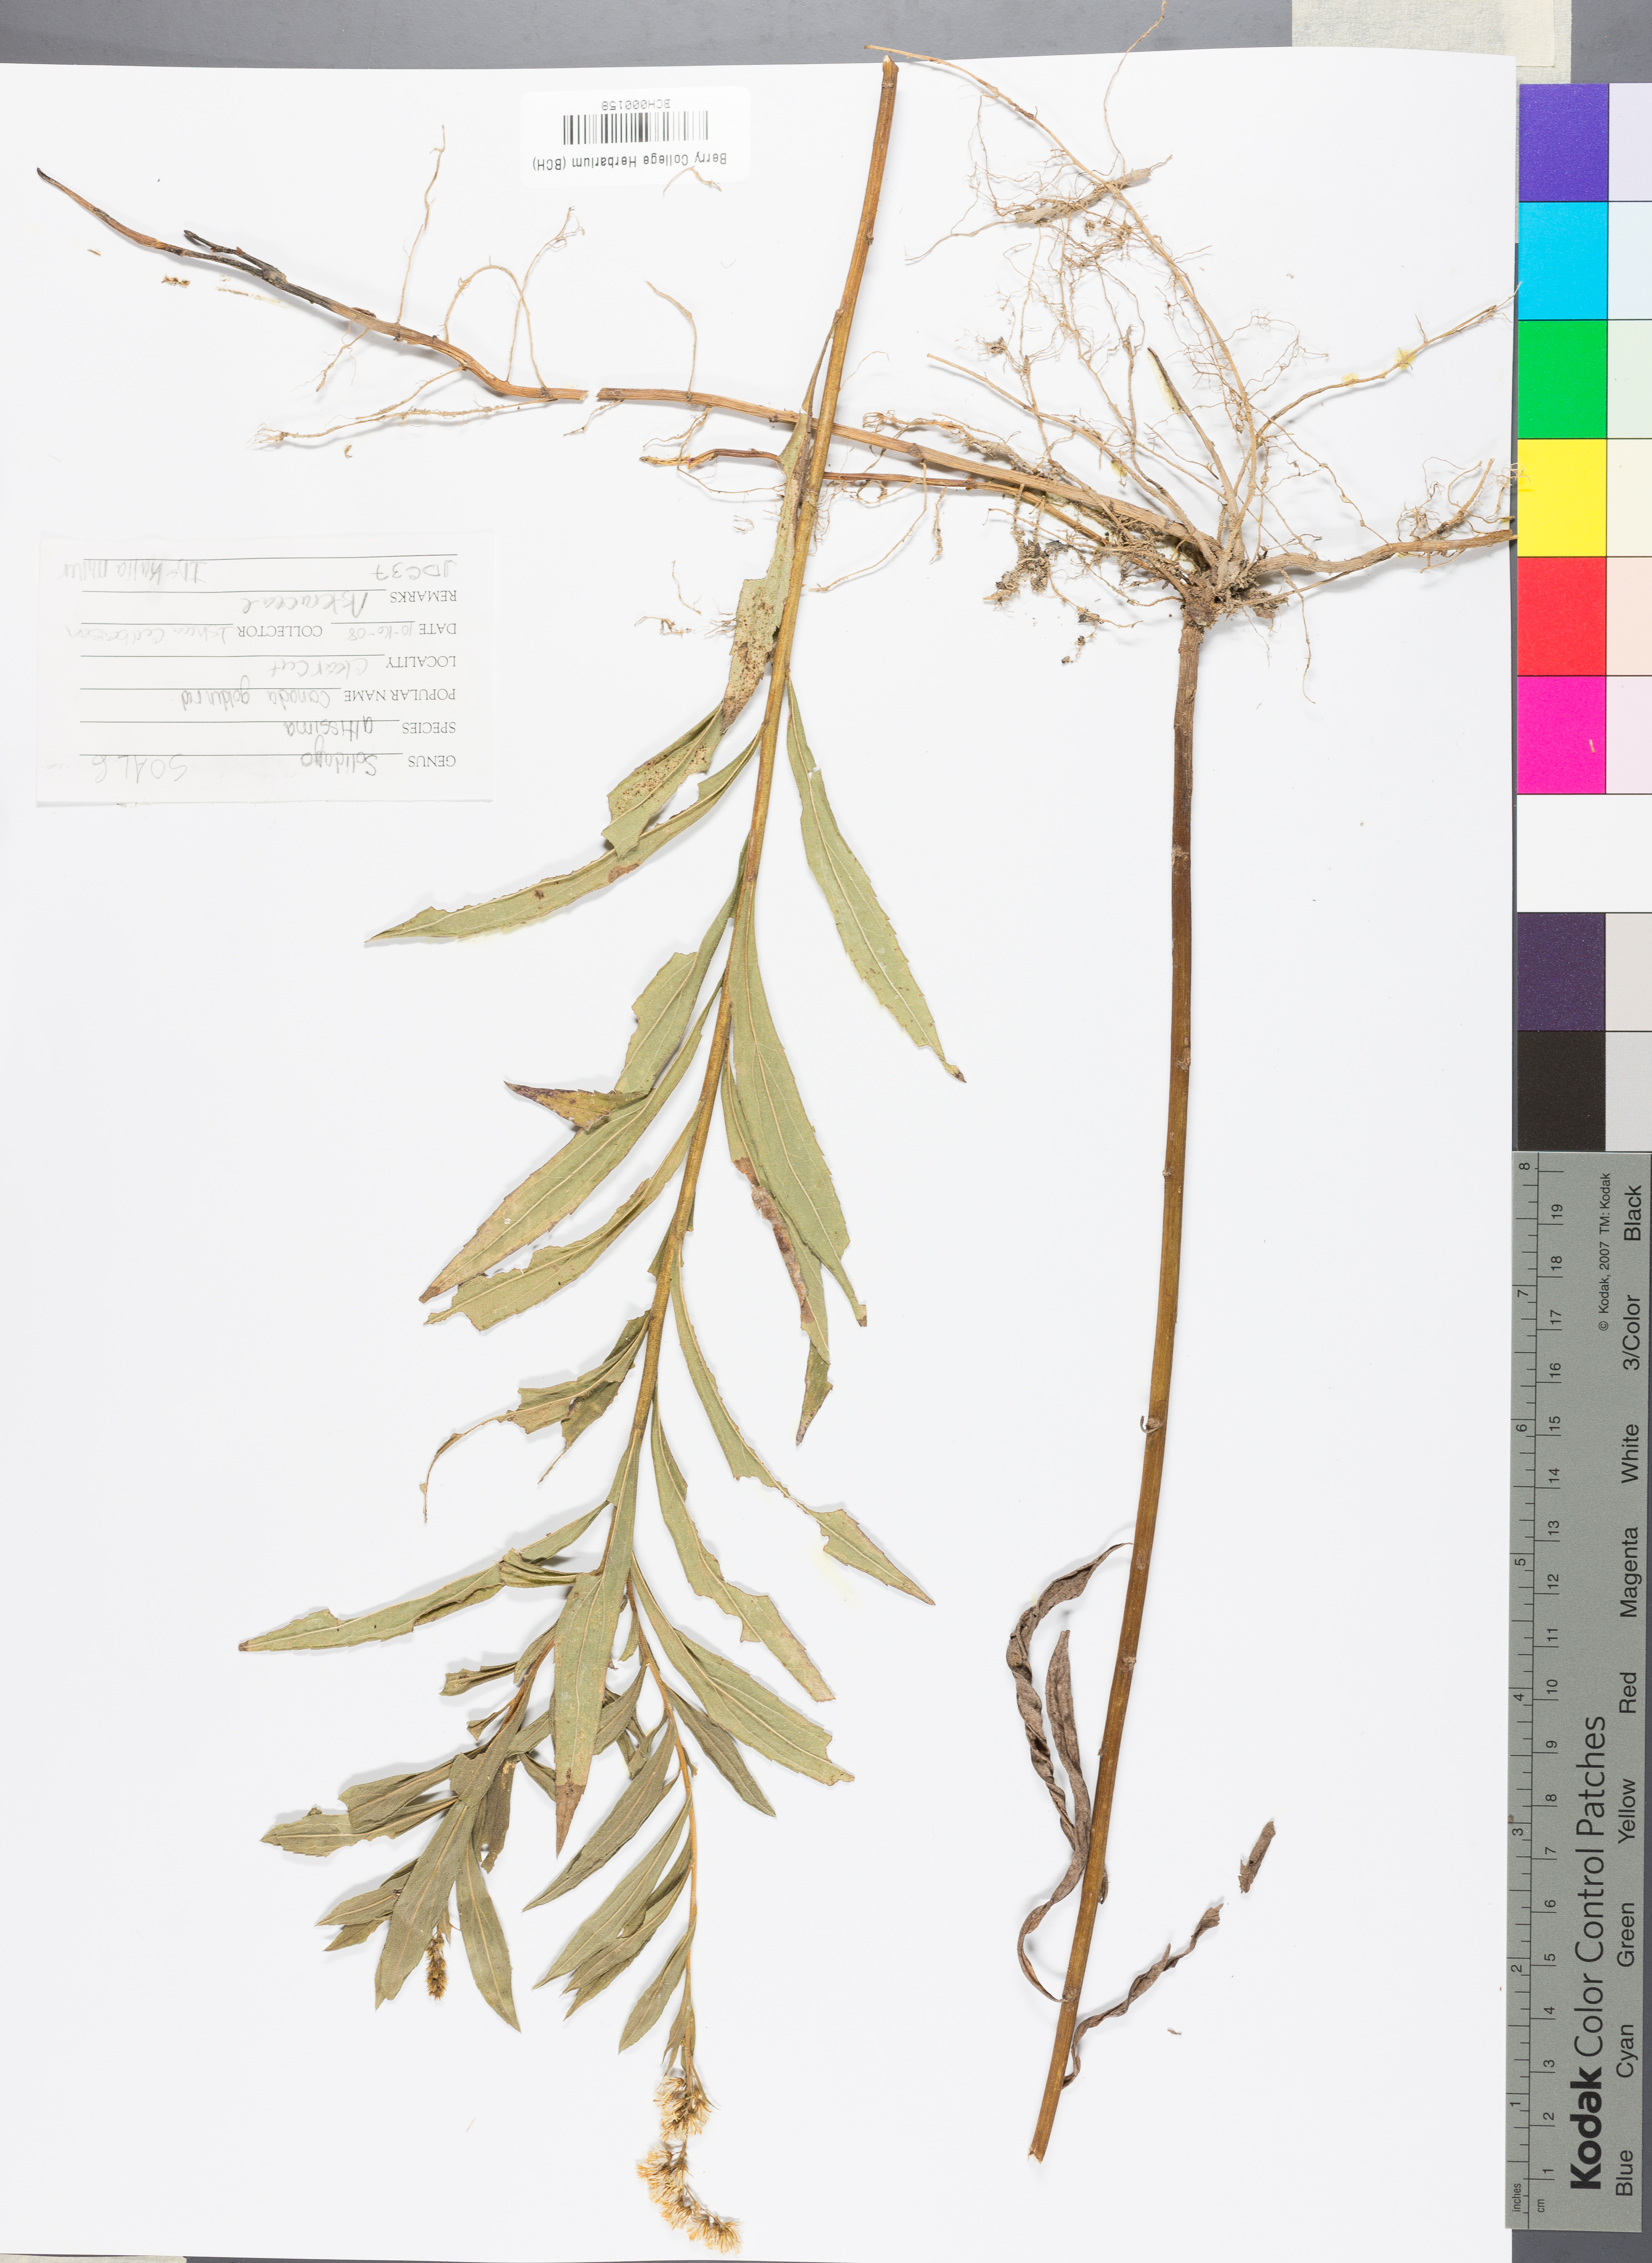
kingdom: Plantae
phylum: Tracheophyta
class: Magnoliopsida
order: Asterales
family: Asteraceae
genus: Solidago
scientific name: Solidago altissima
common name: Late goldenrod
